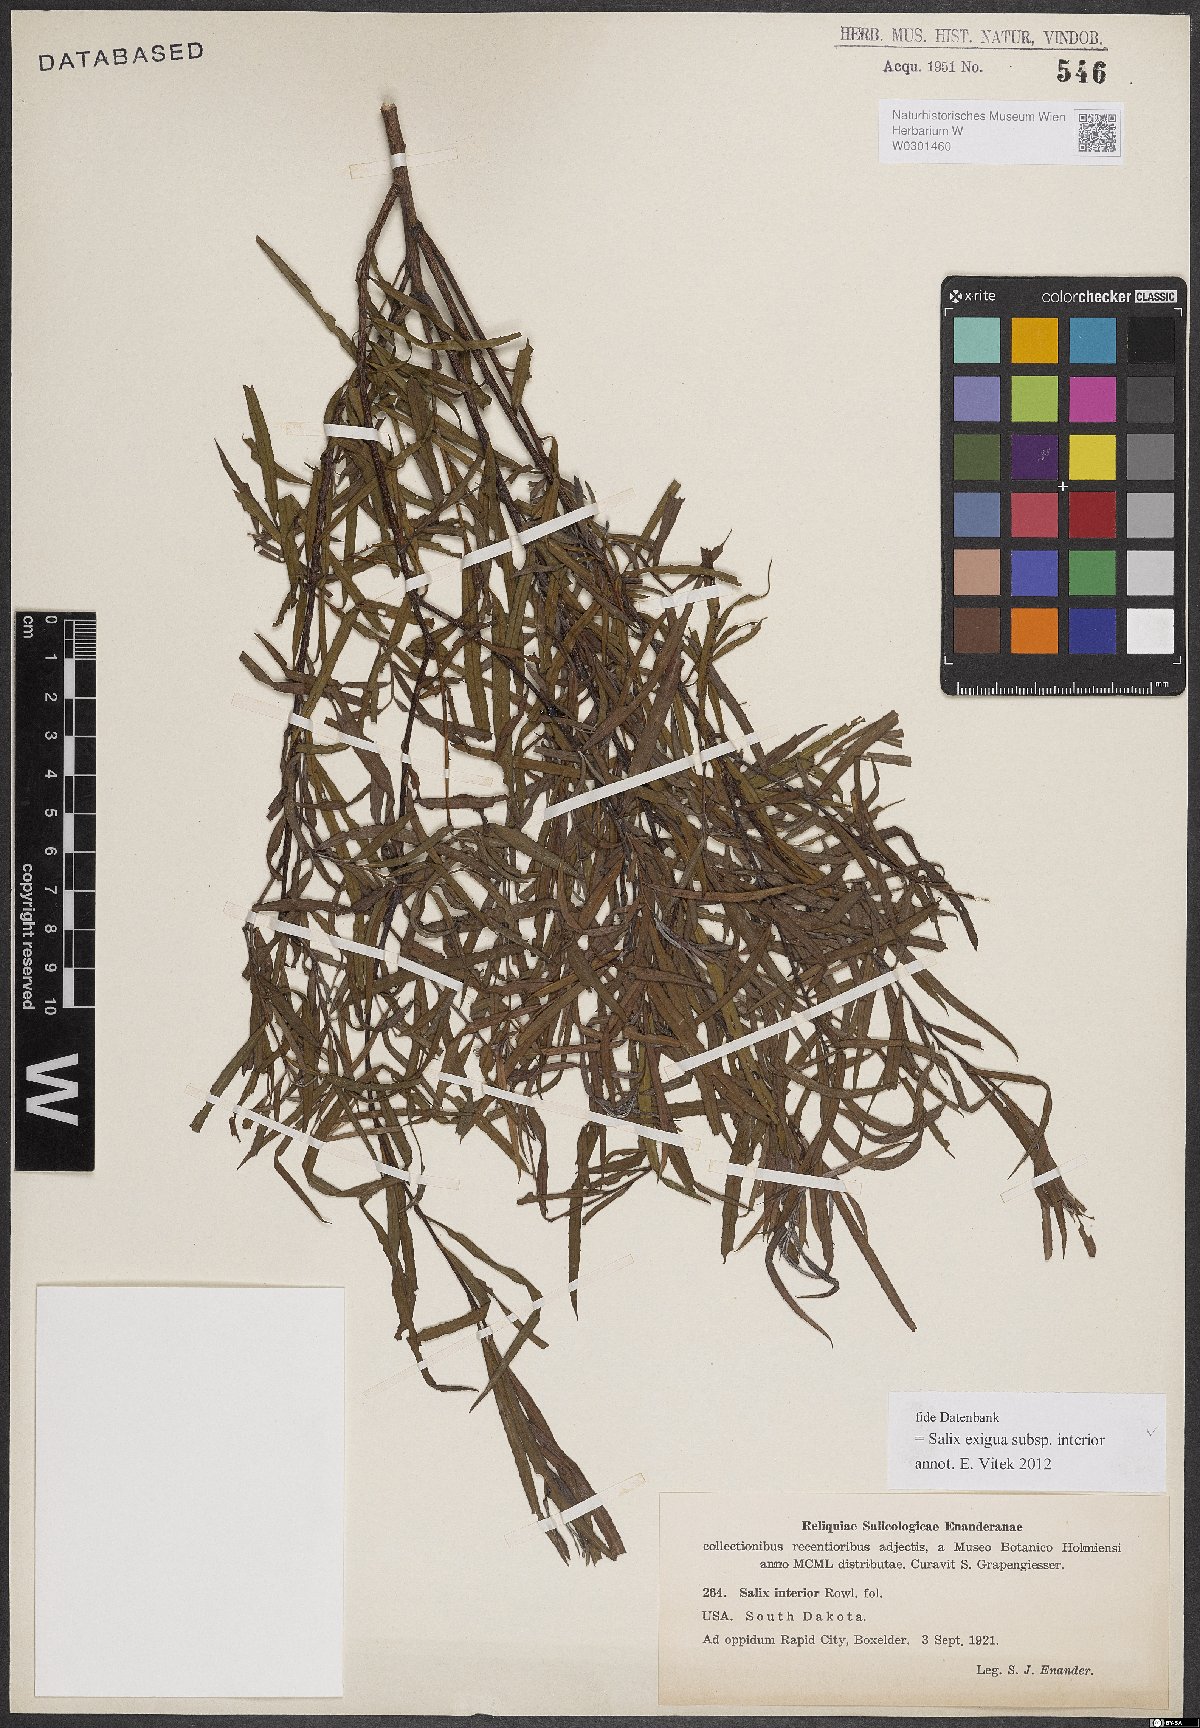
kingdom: Plantae
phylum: Tracheophyta
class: Magnoliopsida
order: Malpighiales
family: Salicaceae
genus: Salix
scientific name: Salix interior
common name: Sandbar willow
